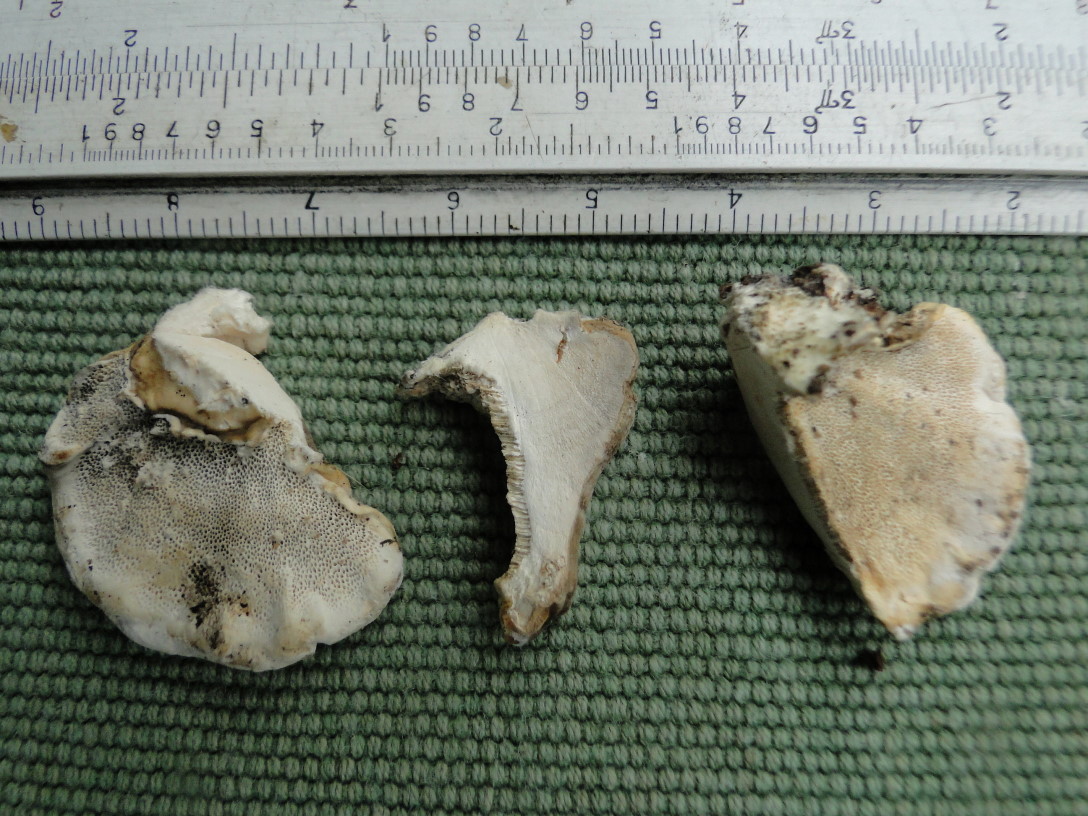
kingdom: Fungi
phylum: Basidiomycota
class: Agaricomycetes
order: Polyporales
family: Polyporaceae
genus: Trametes
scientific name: Trametes ochracea
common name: bæltet læderporesvamp
